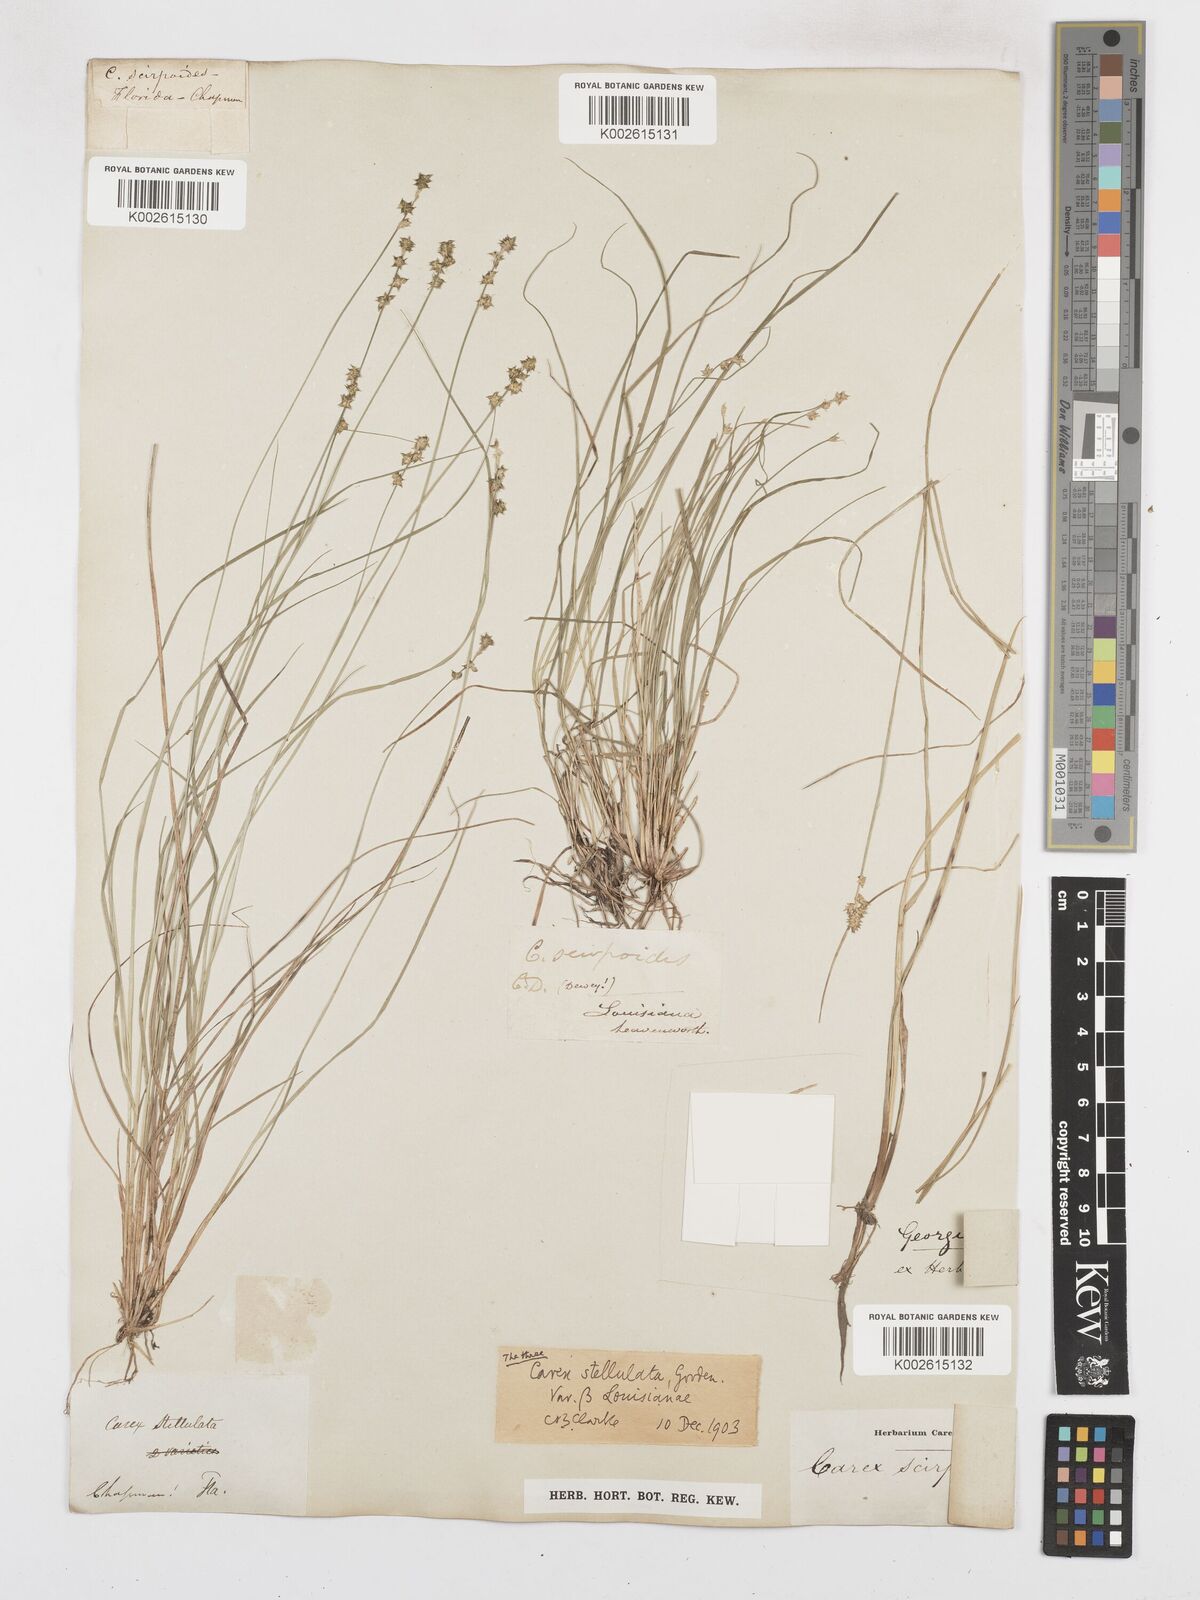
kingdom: Plantae
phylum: Tracheophyta
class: Liliopsida
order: Poales
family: Cyperaceae
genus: Carex
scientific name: Carex echinata
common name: Star sedge
